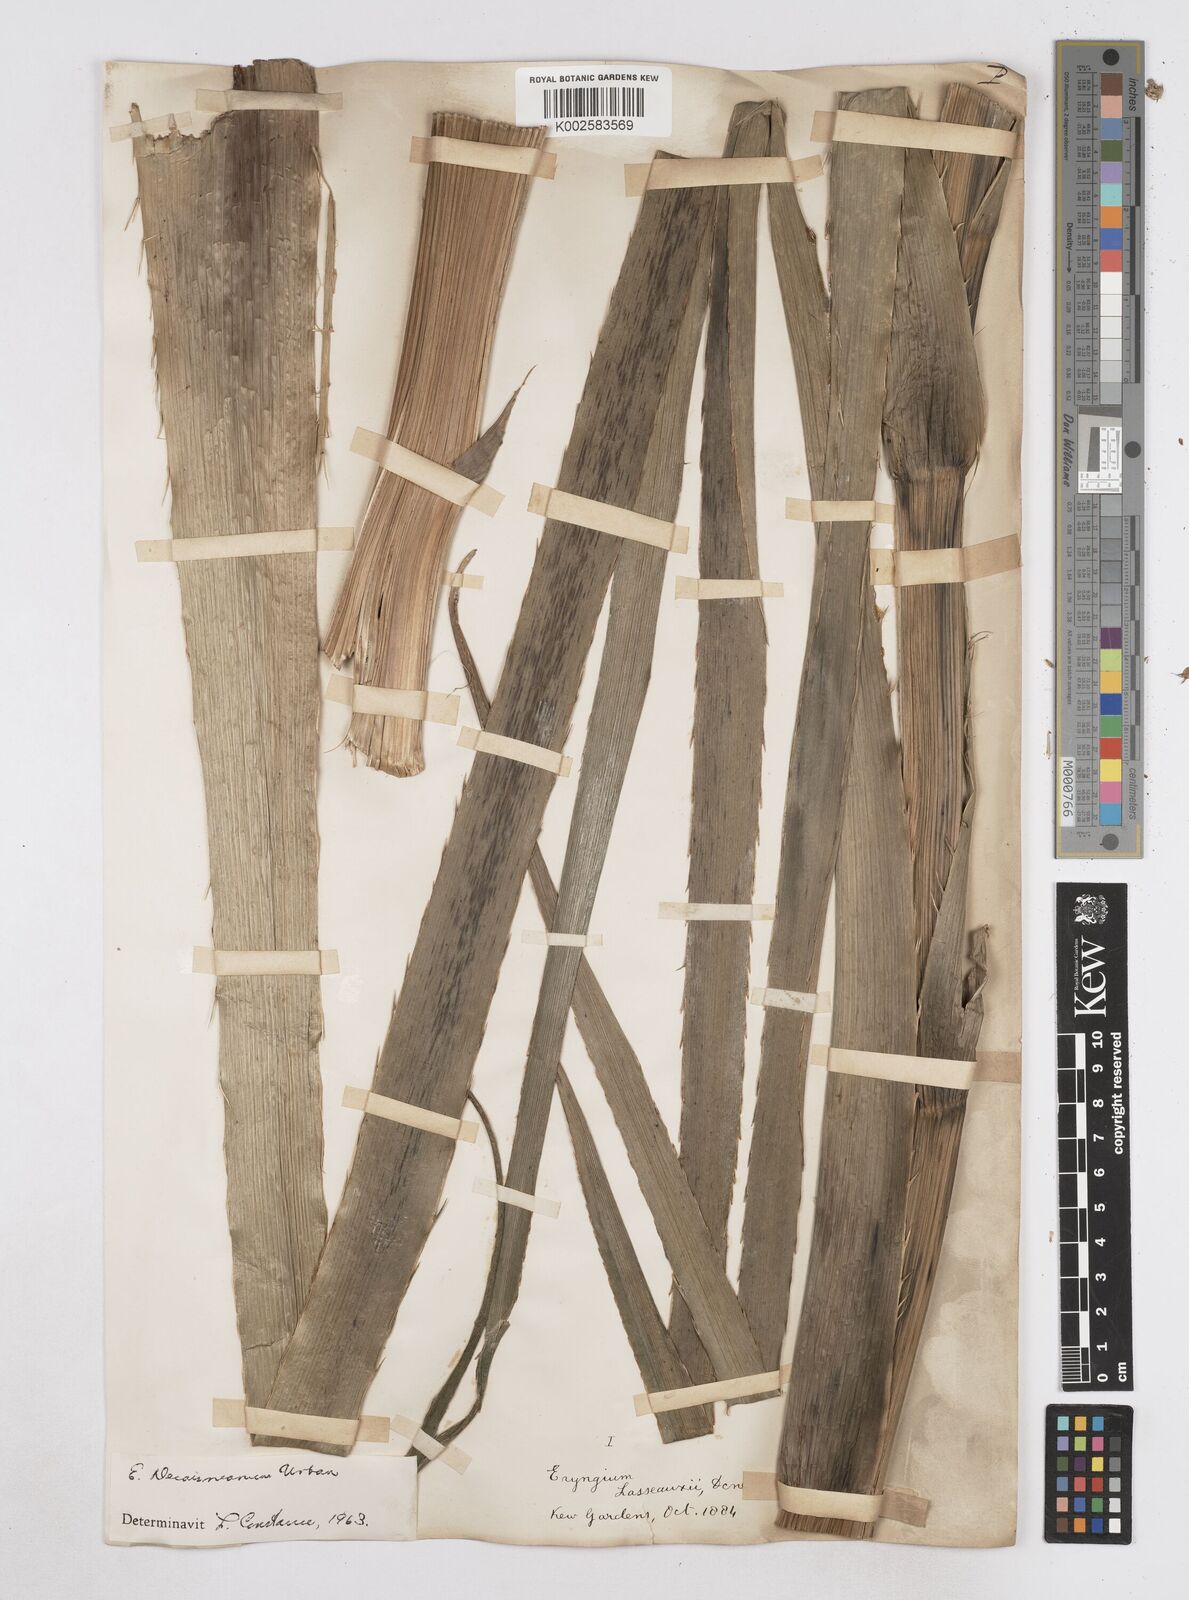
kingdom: Plantae
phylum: Tracheophyta
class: Magnoliopsida
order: Apiales
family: Apiaceae
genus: Eryngium
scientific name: Eryngium pandanifolium
